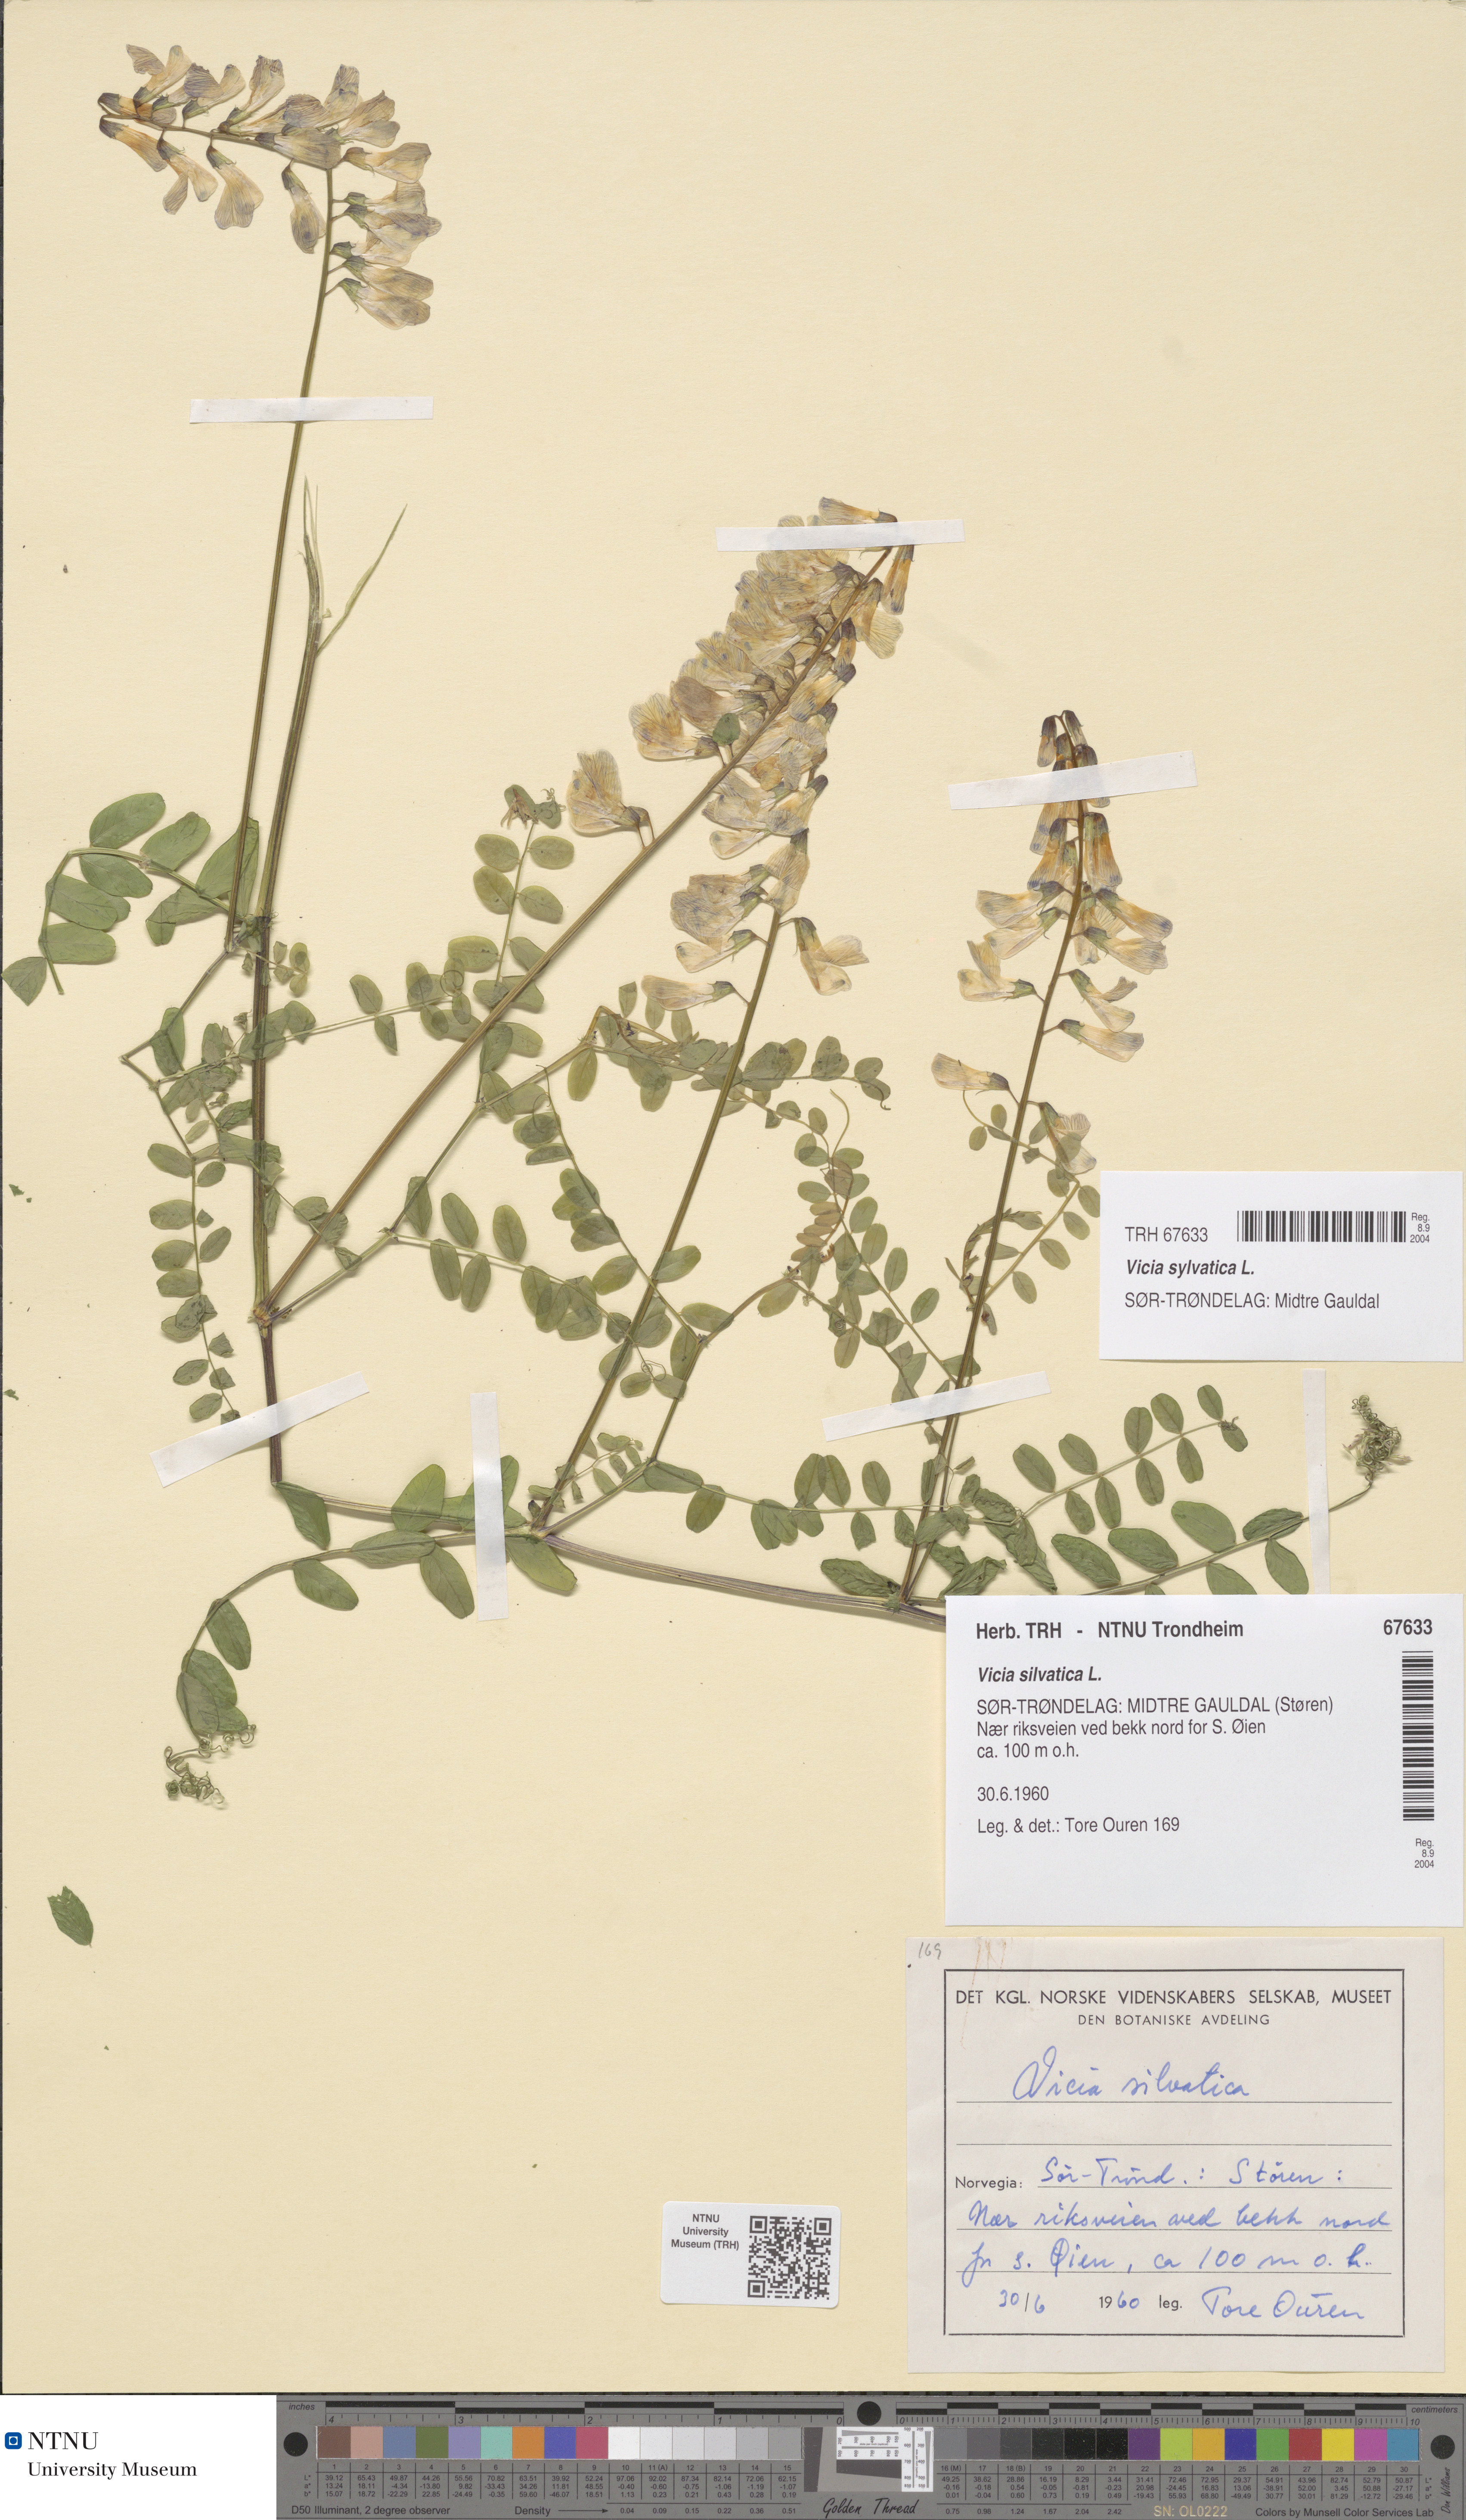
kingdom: Plantae
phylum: Tracheophyta
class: Magnoliopsida
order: Fabales
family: Fabaceae
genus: Vicia
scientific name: Vicia sylvatica
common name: Wood vetch
